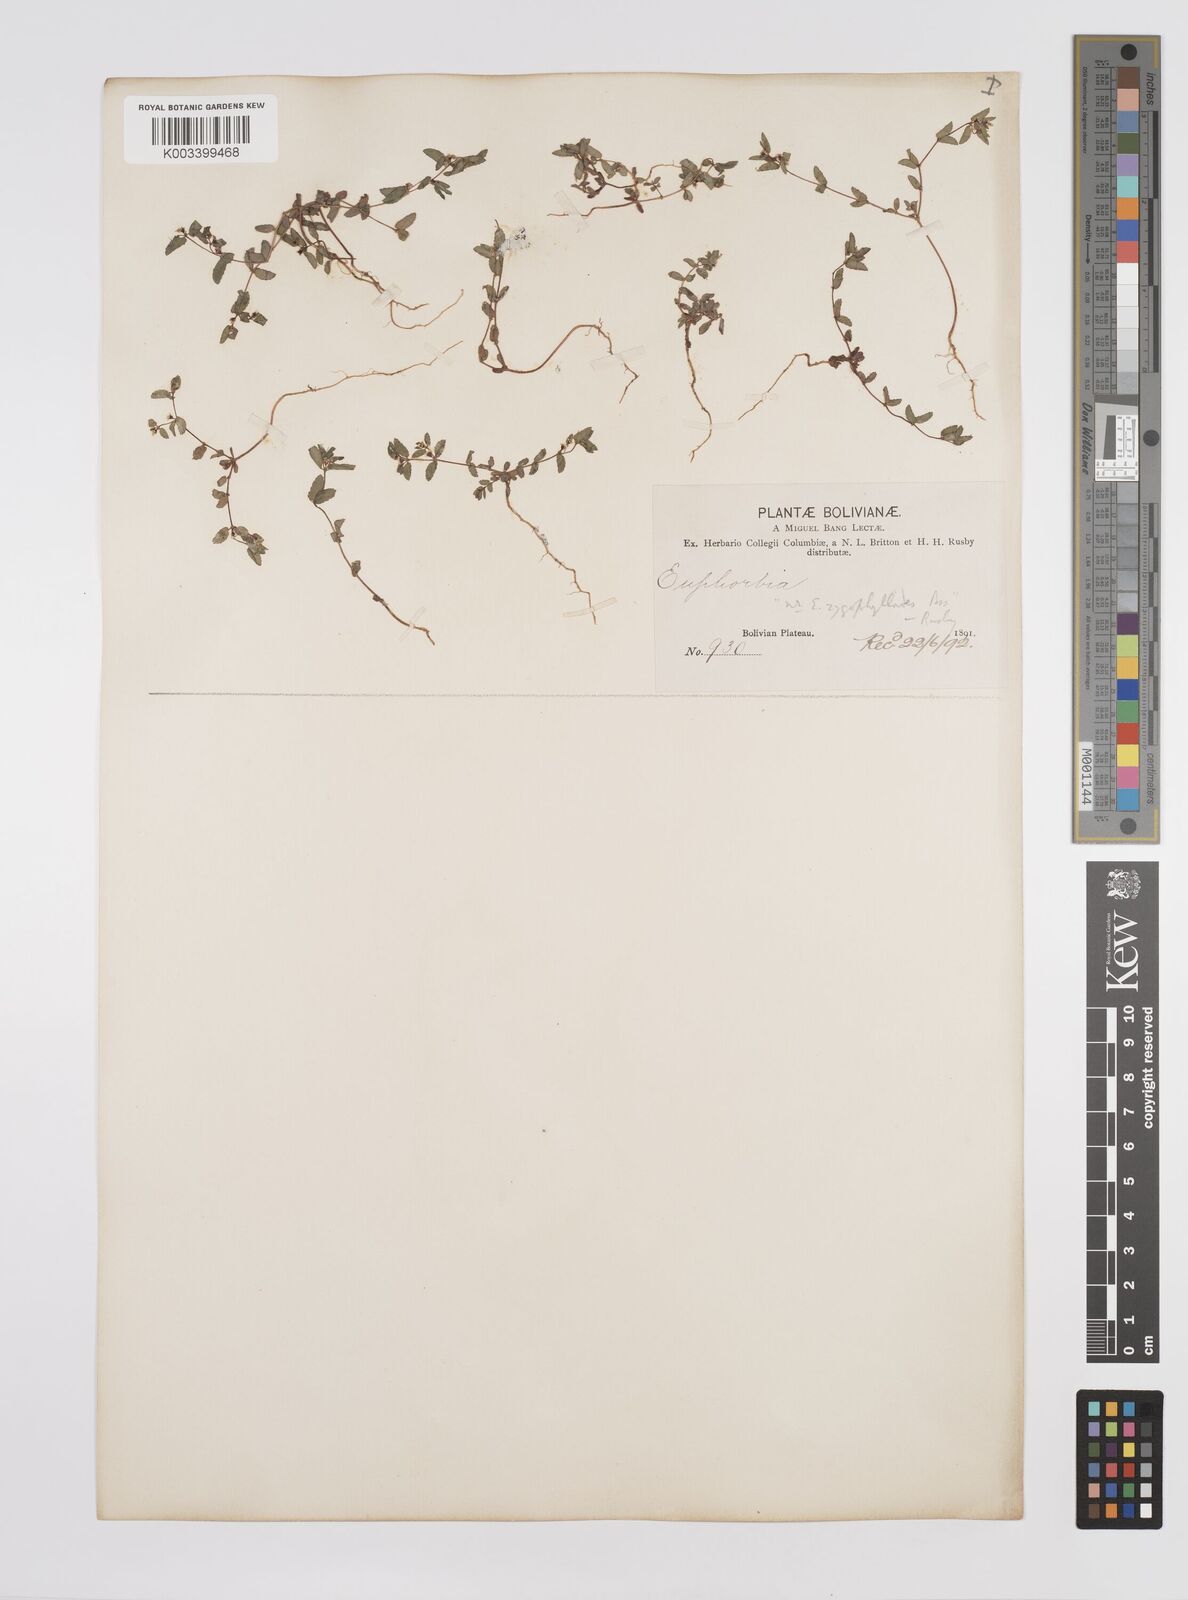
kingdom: Plantae
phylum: Tracheophyta
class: Magnoliopsida
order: Malpighiales
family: Euphorbiaceae
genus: Euphorbia
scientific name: Euphorbia
